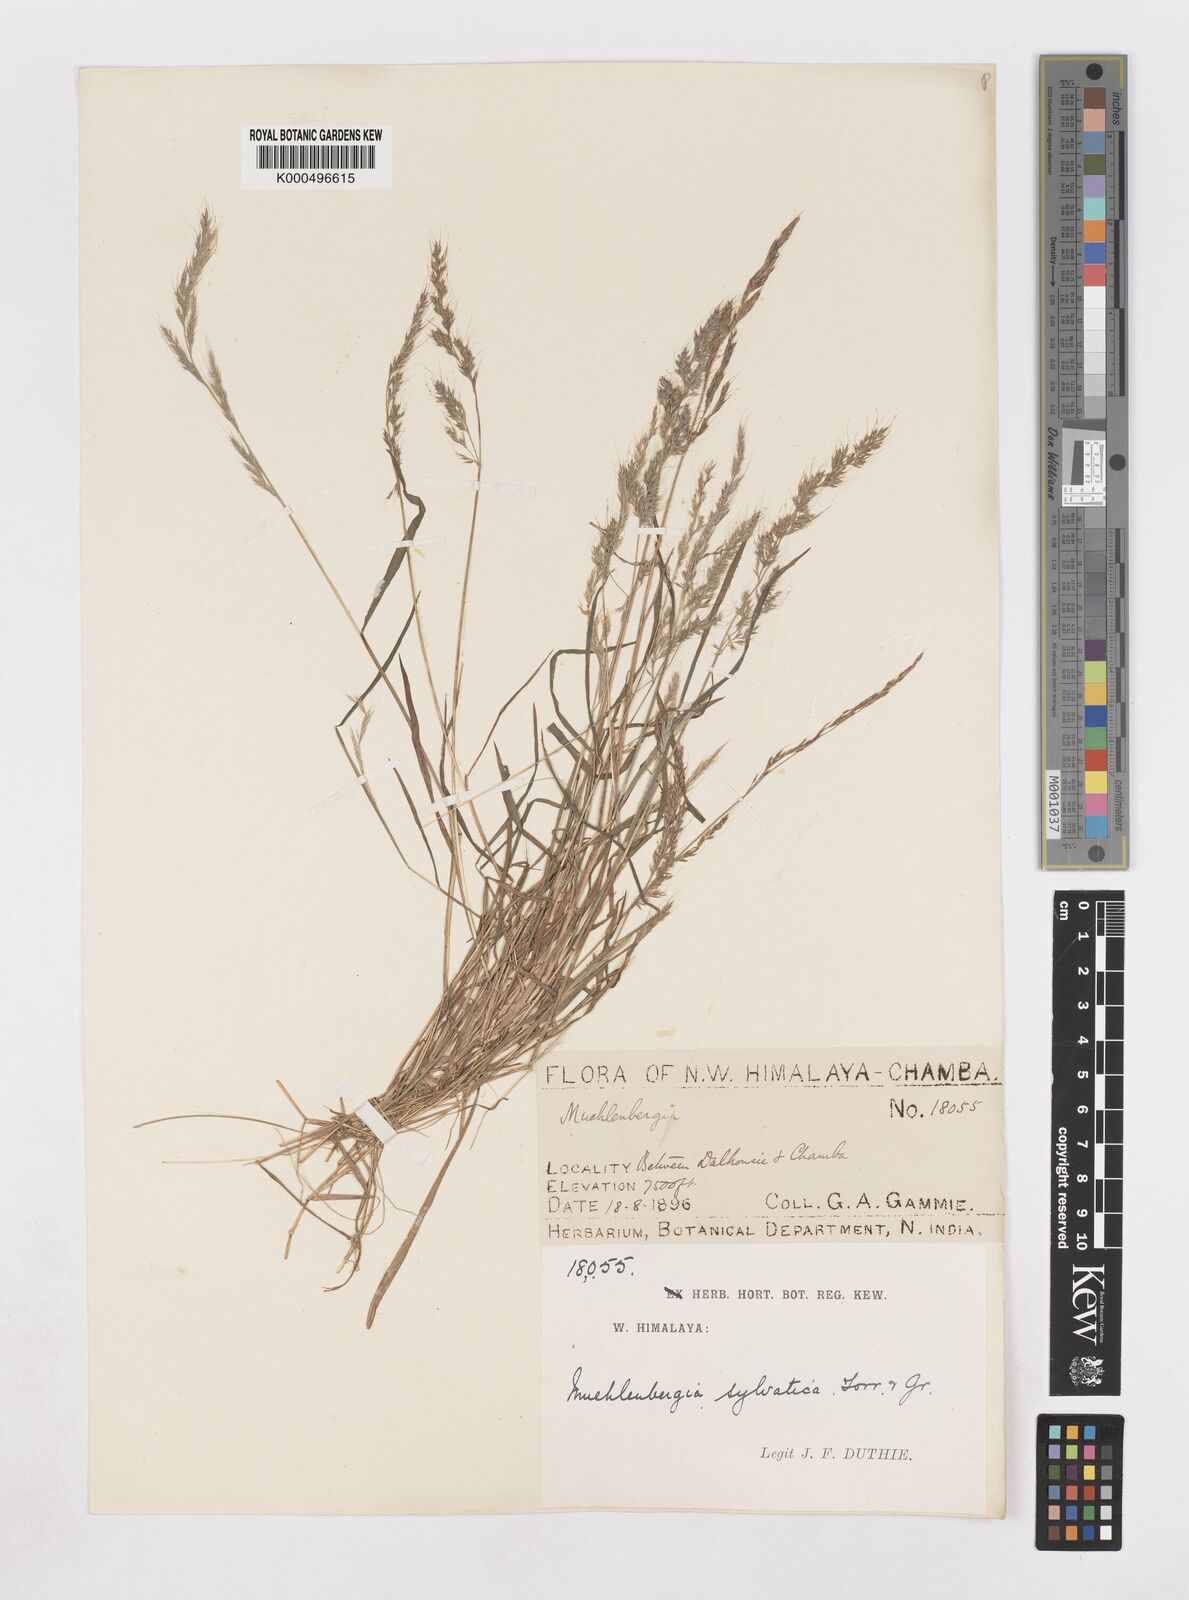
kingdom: Plantae
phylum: Tracheophyta
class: Liliopsida
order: Poales
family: Poaceae
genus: Muhlenbergia
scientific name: Muhlenbergia duthieana
